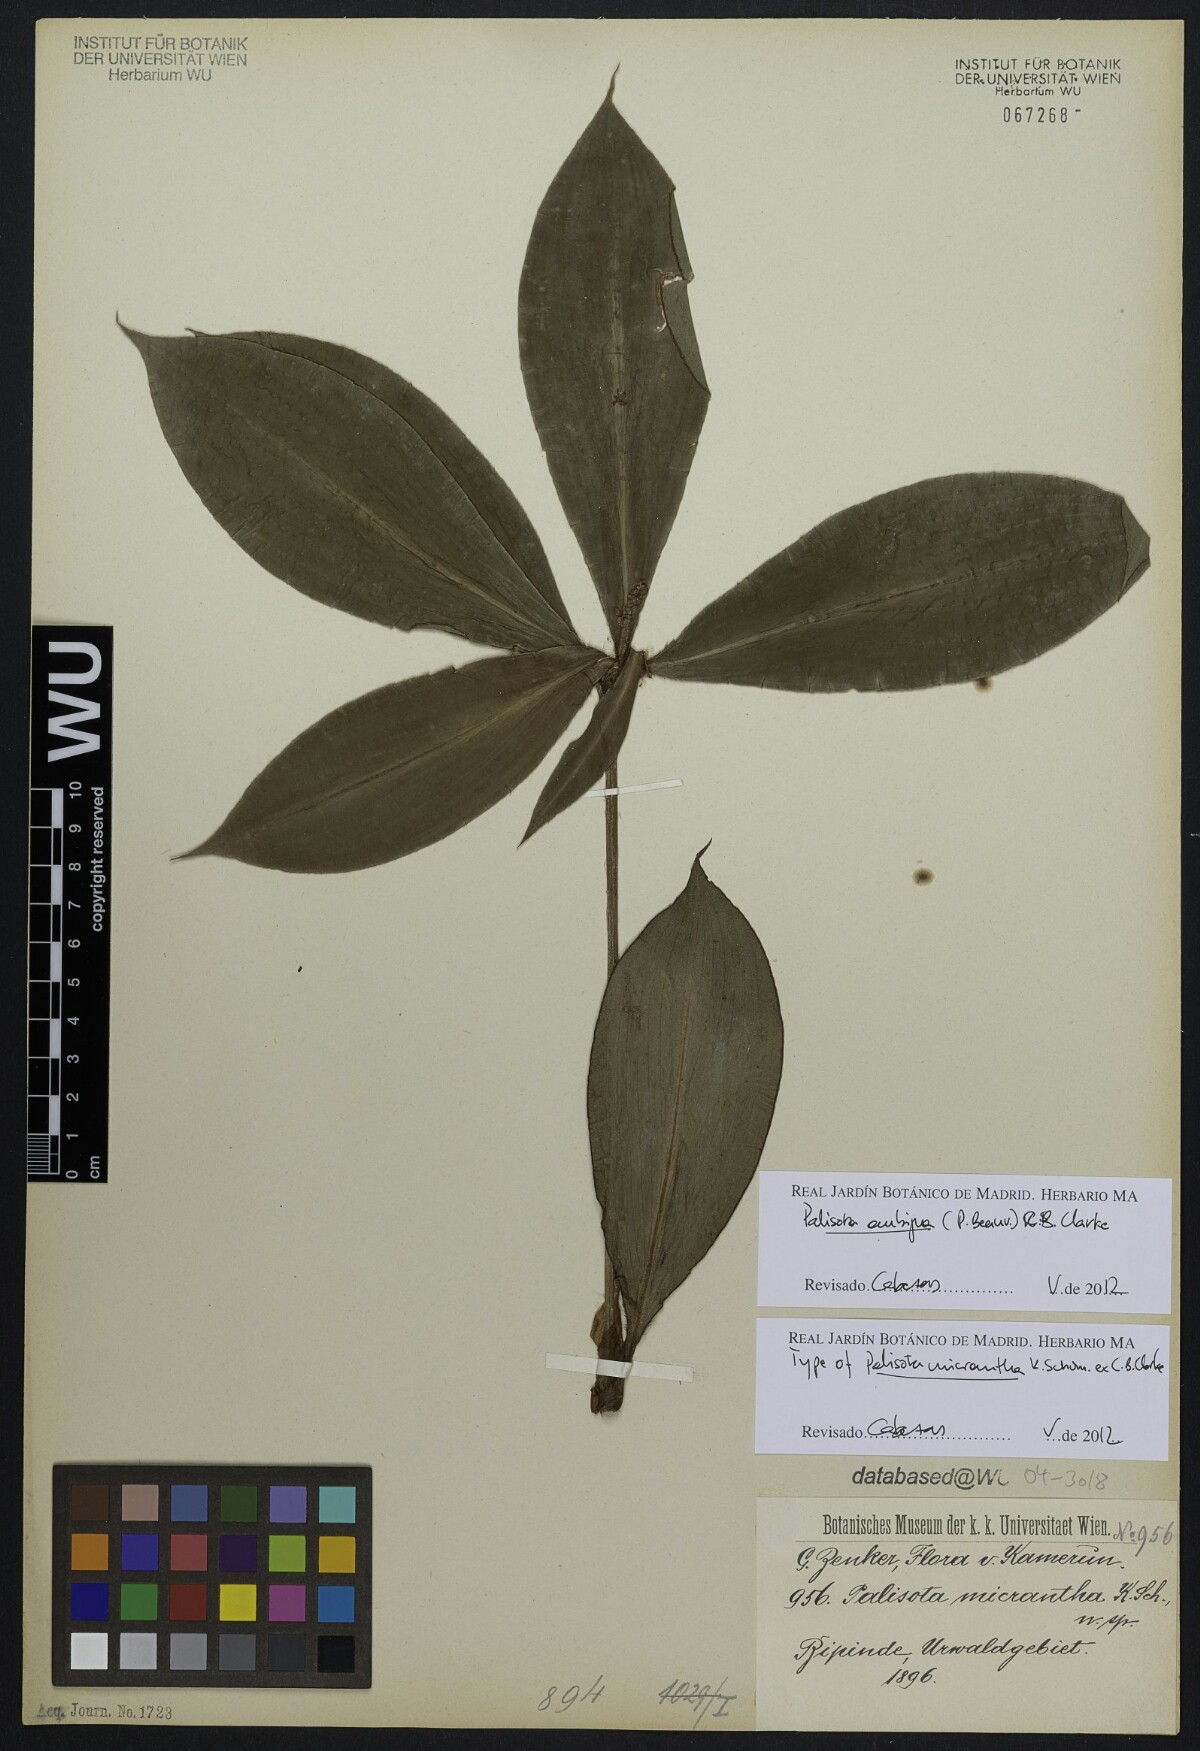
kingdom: Plantae
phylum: Tracheophyta
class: Liliopsida
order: Commelinales
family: Commelinaceae
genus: Palisota
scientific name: Palisota ambigua
